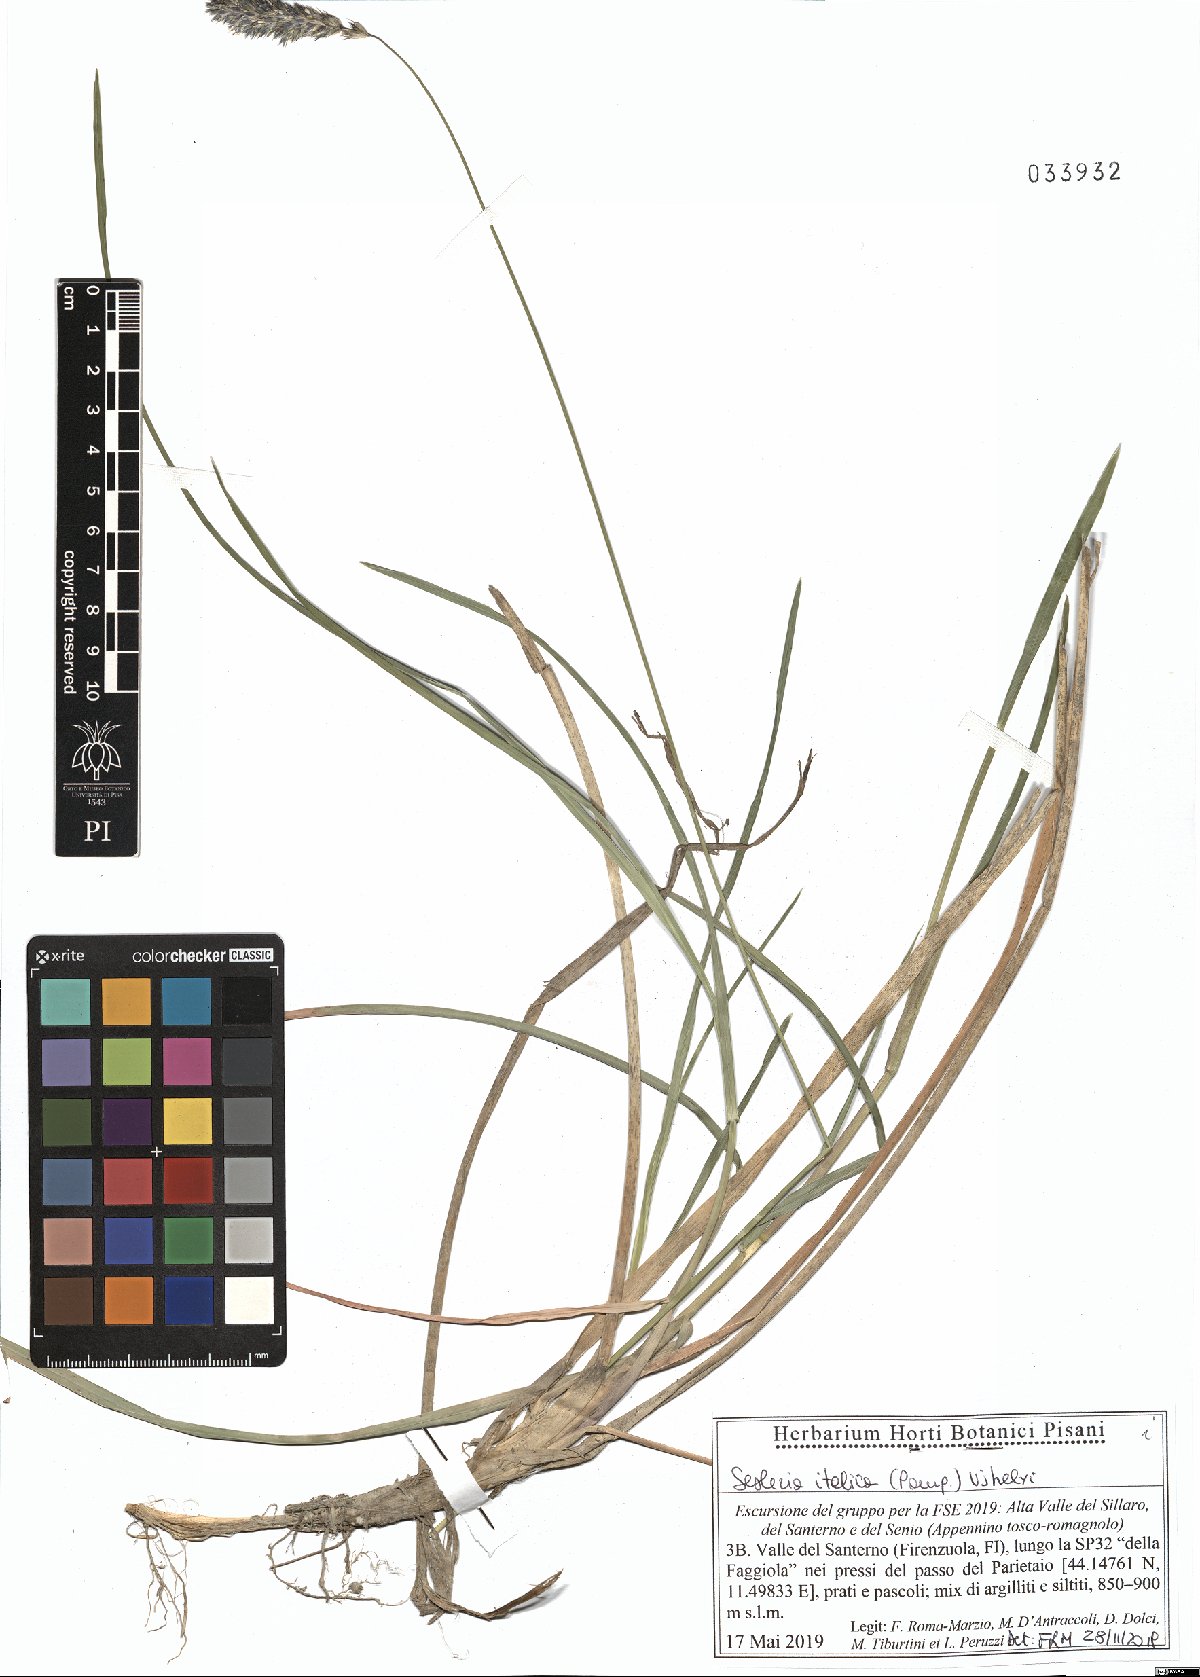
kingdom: Plantae
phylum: Tracheophyta
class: Liliopsida
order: Poales
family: Poaceae
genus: Sesleria
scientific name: Sesleria italica
